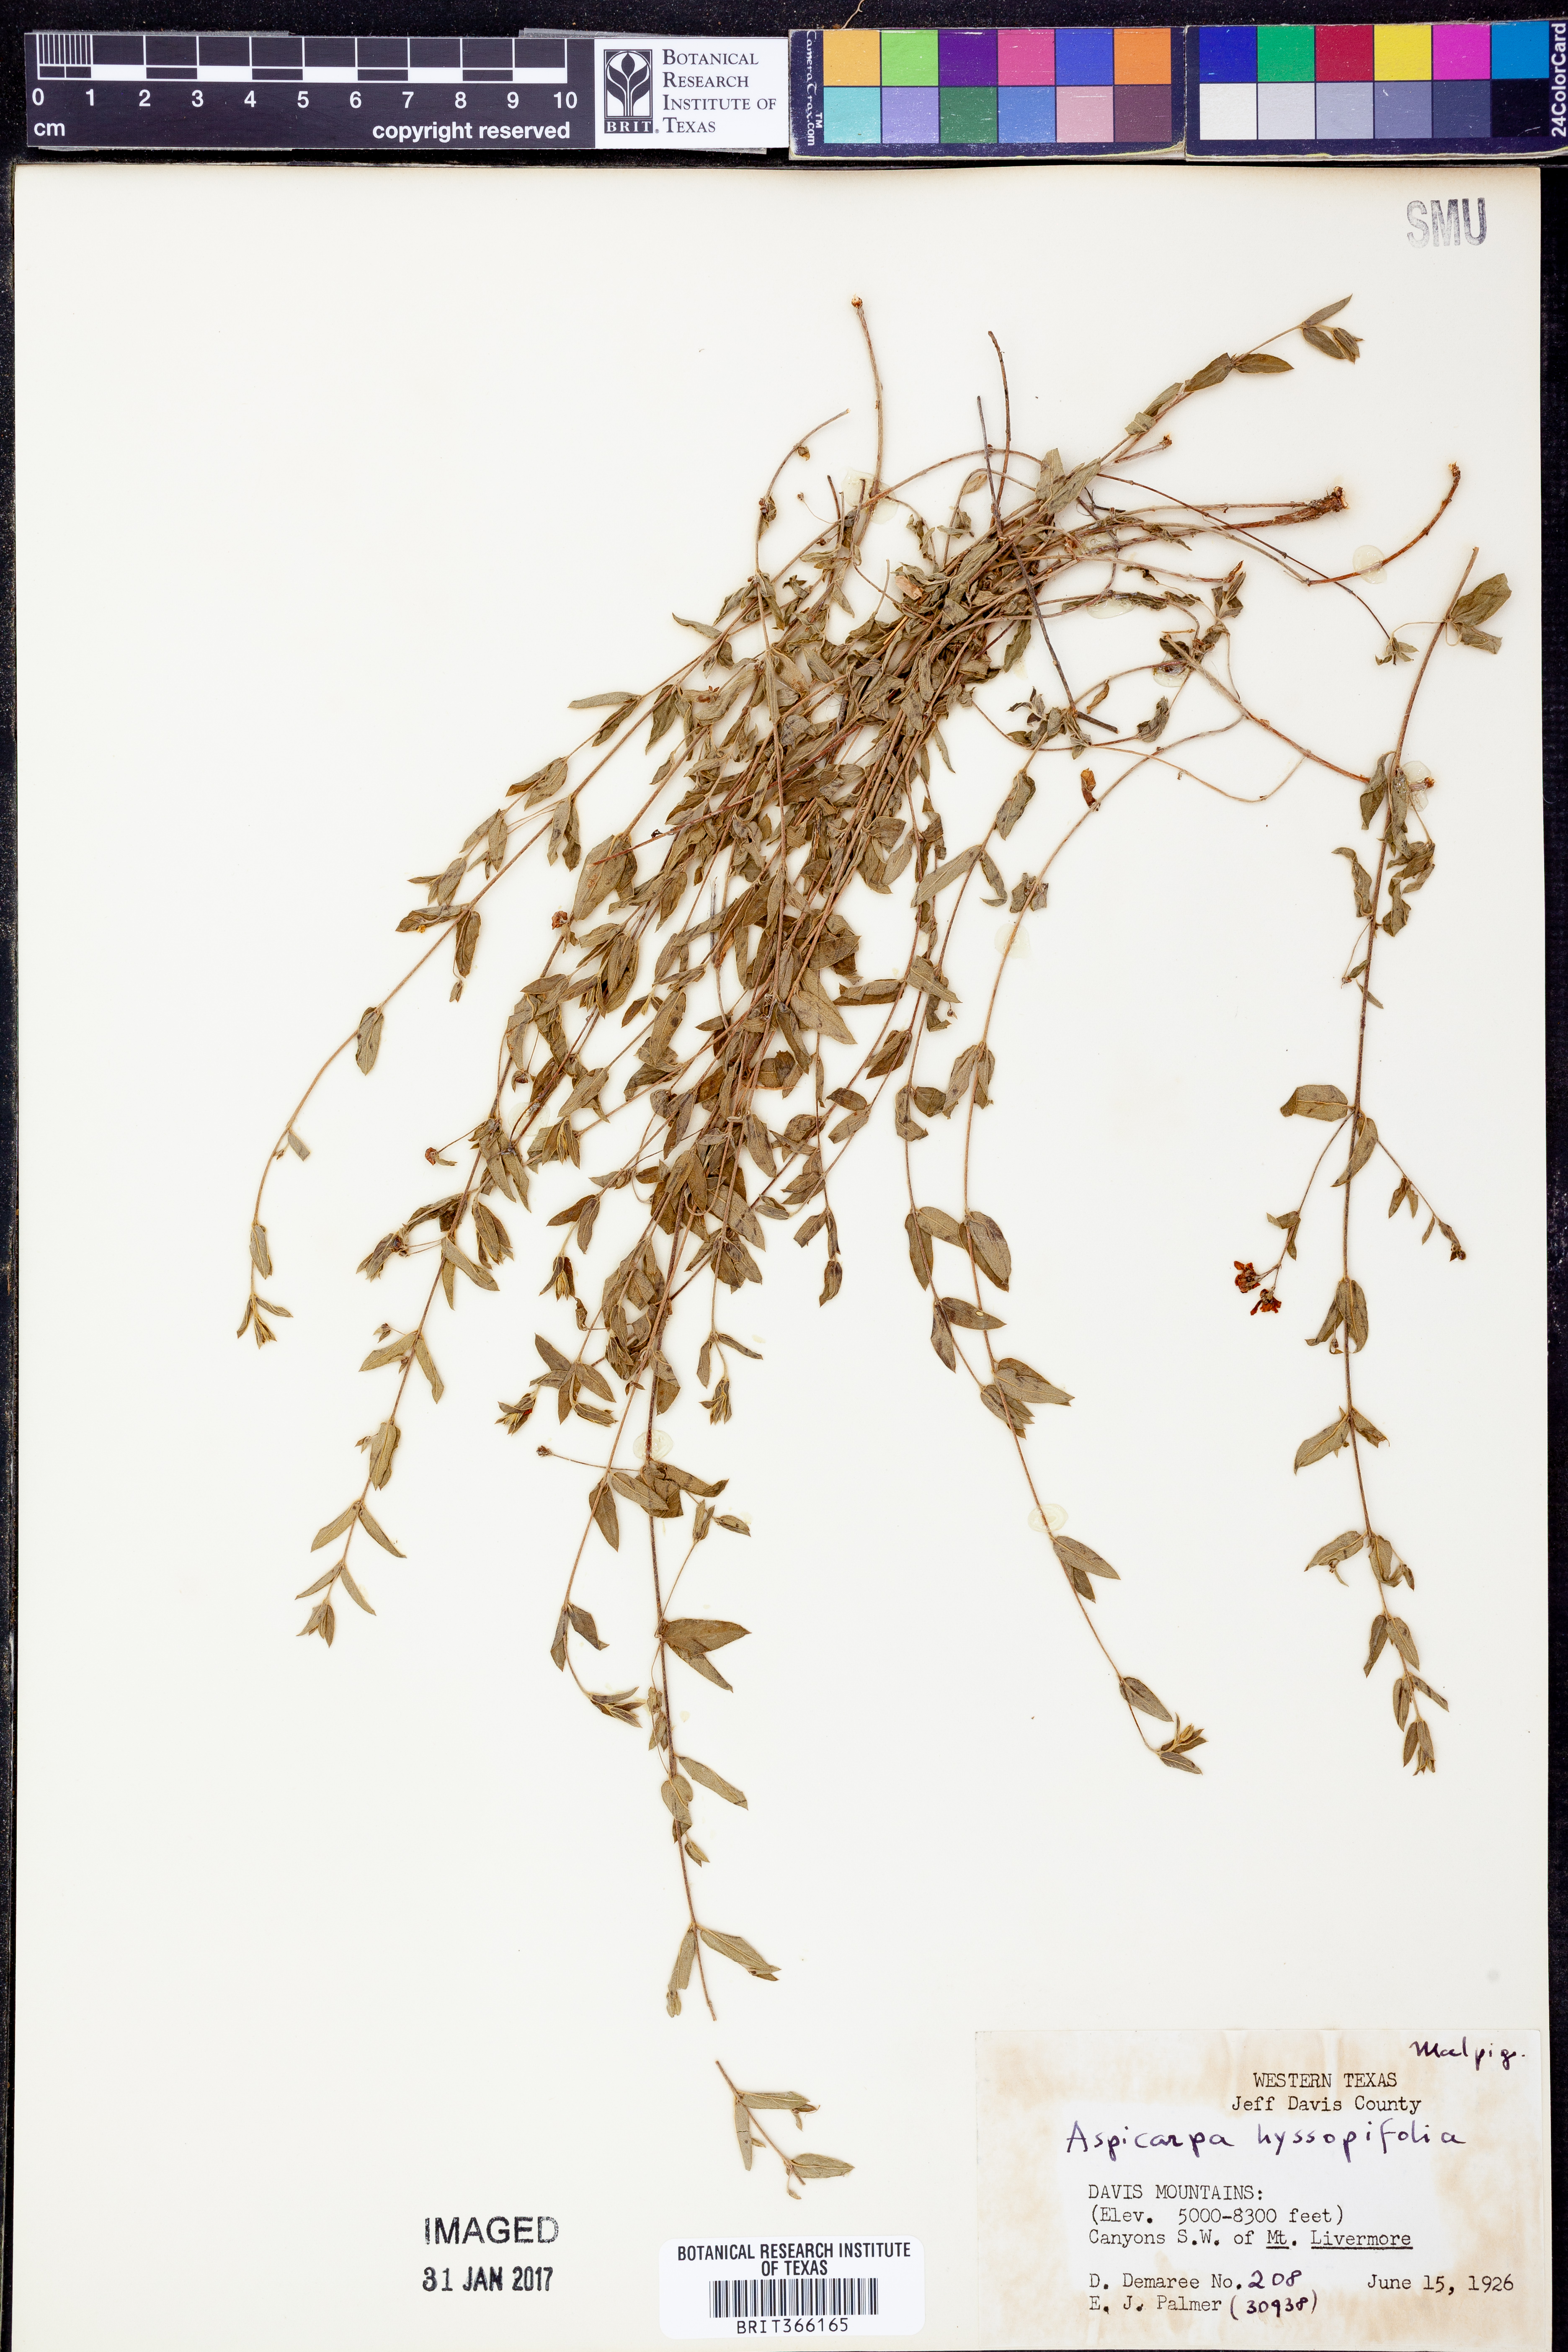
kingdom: Plantae
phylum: Tracheophyta
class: Magnoliopsida
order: Malpighiales
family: Malpighiaceae
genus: Aspicarpa
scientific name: Aspicarpa hyssopifolia
